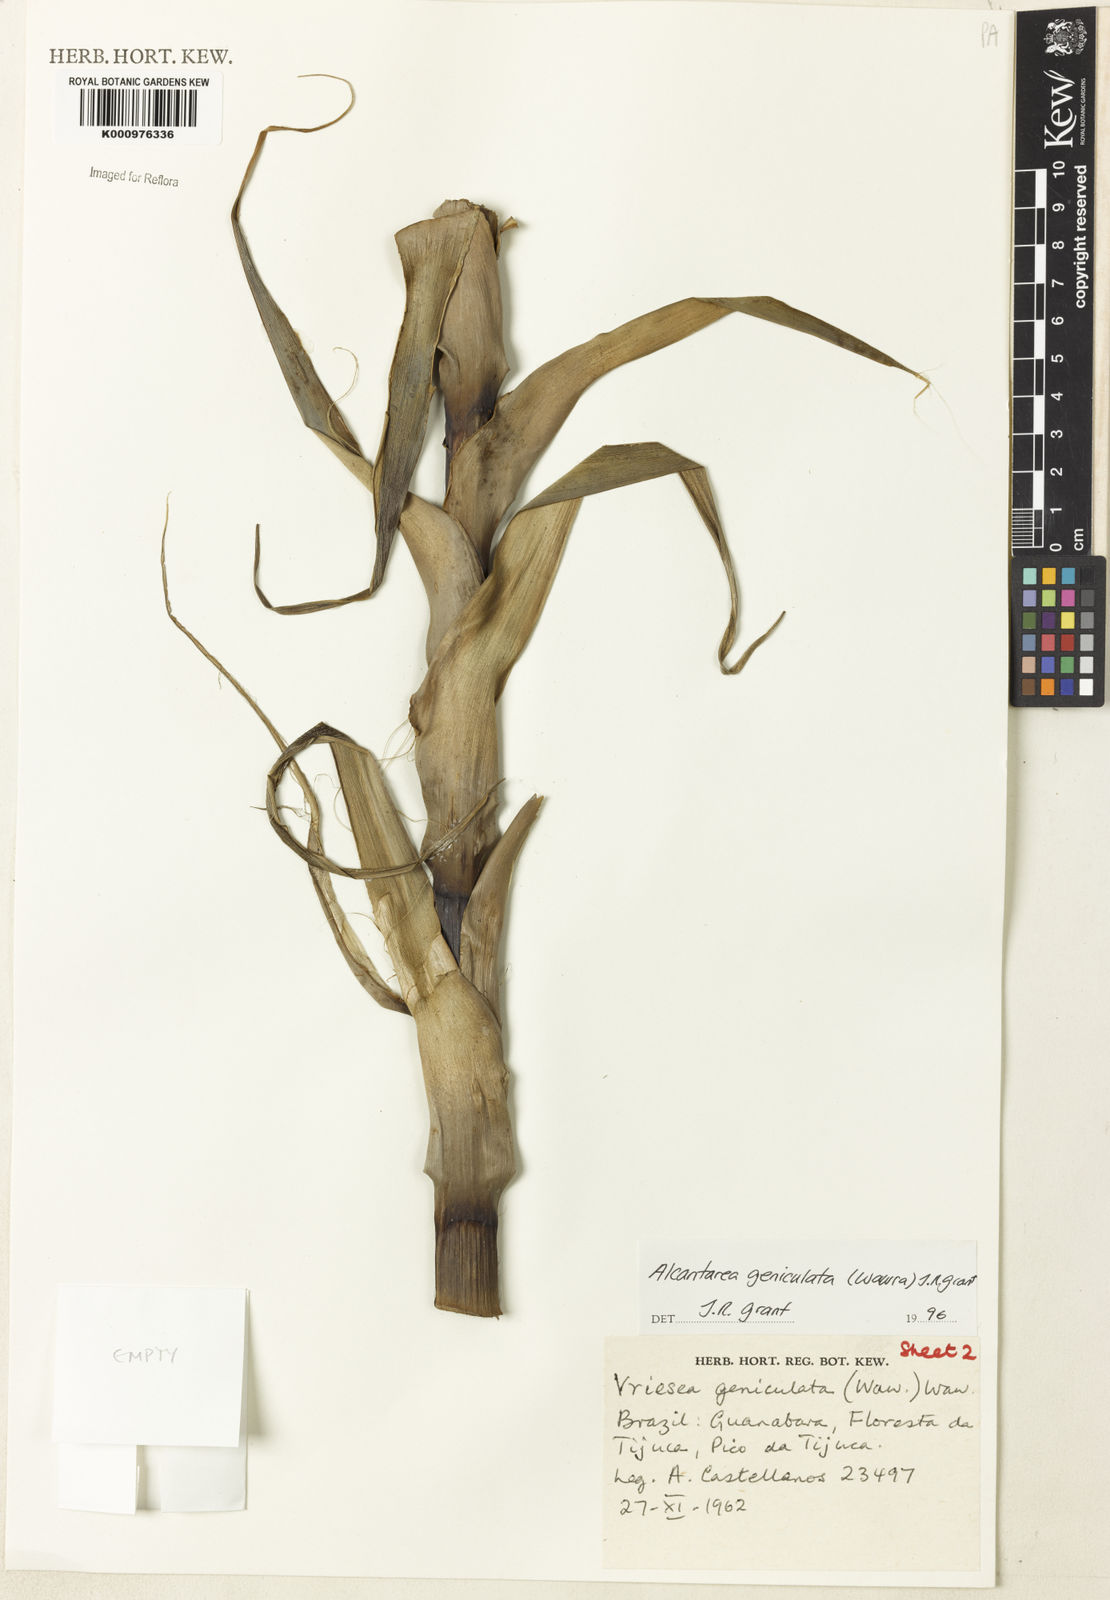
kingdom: Plantae
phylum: Tracheophyta
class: Liliopsida
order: Poales
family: Bromeliaceae
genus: Alcantarea
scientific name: Alcantarea geniculata
